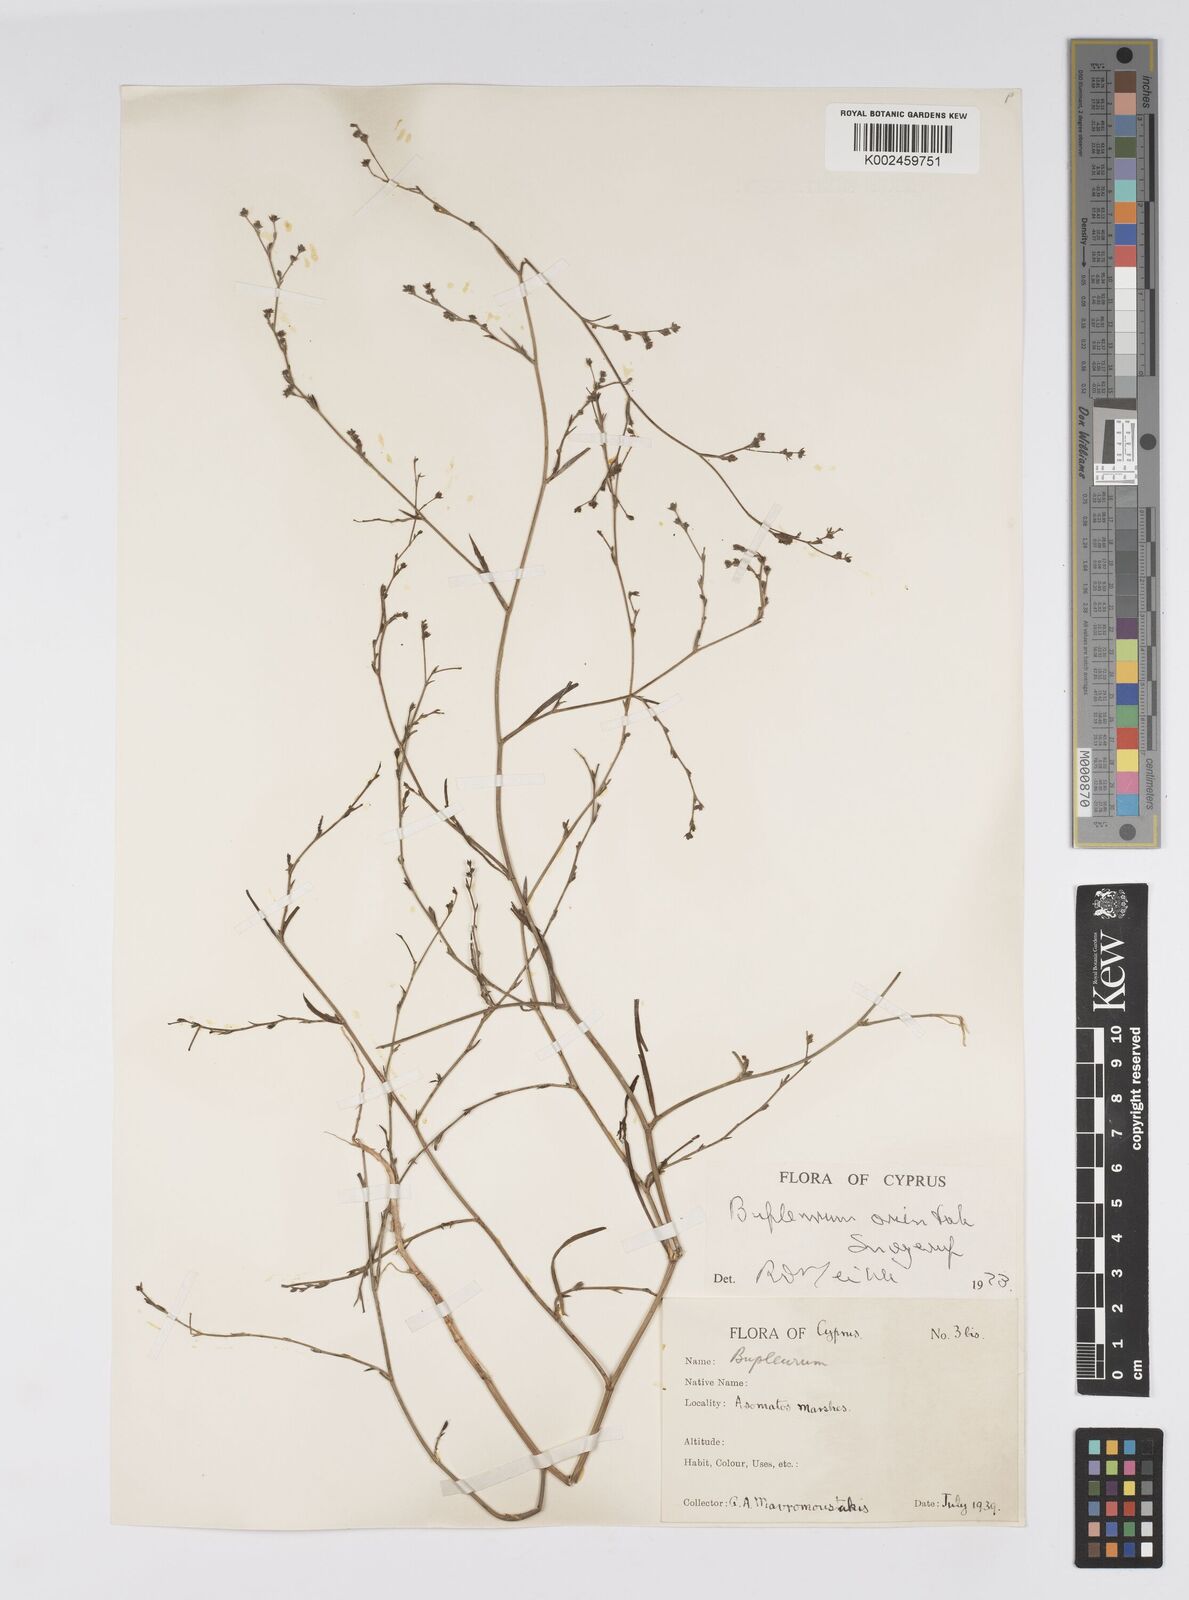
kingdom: Plantae
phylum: Tracheophyta
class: Magnoliopsida
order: Apiales
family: Apiaceae
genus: Bupleurum
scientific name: Bupleurum orientale
